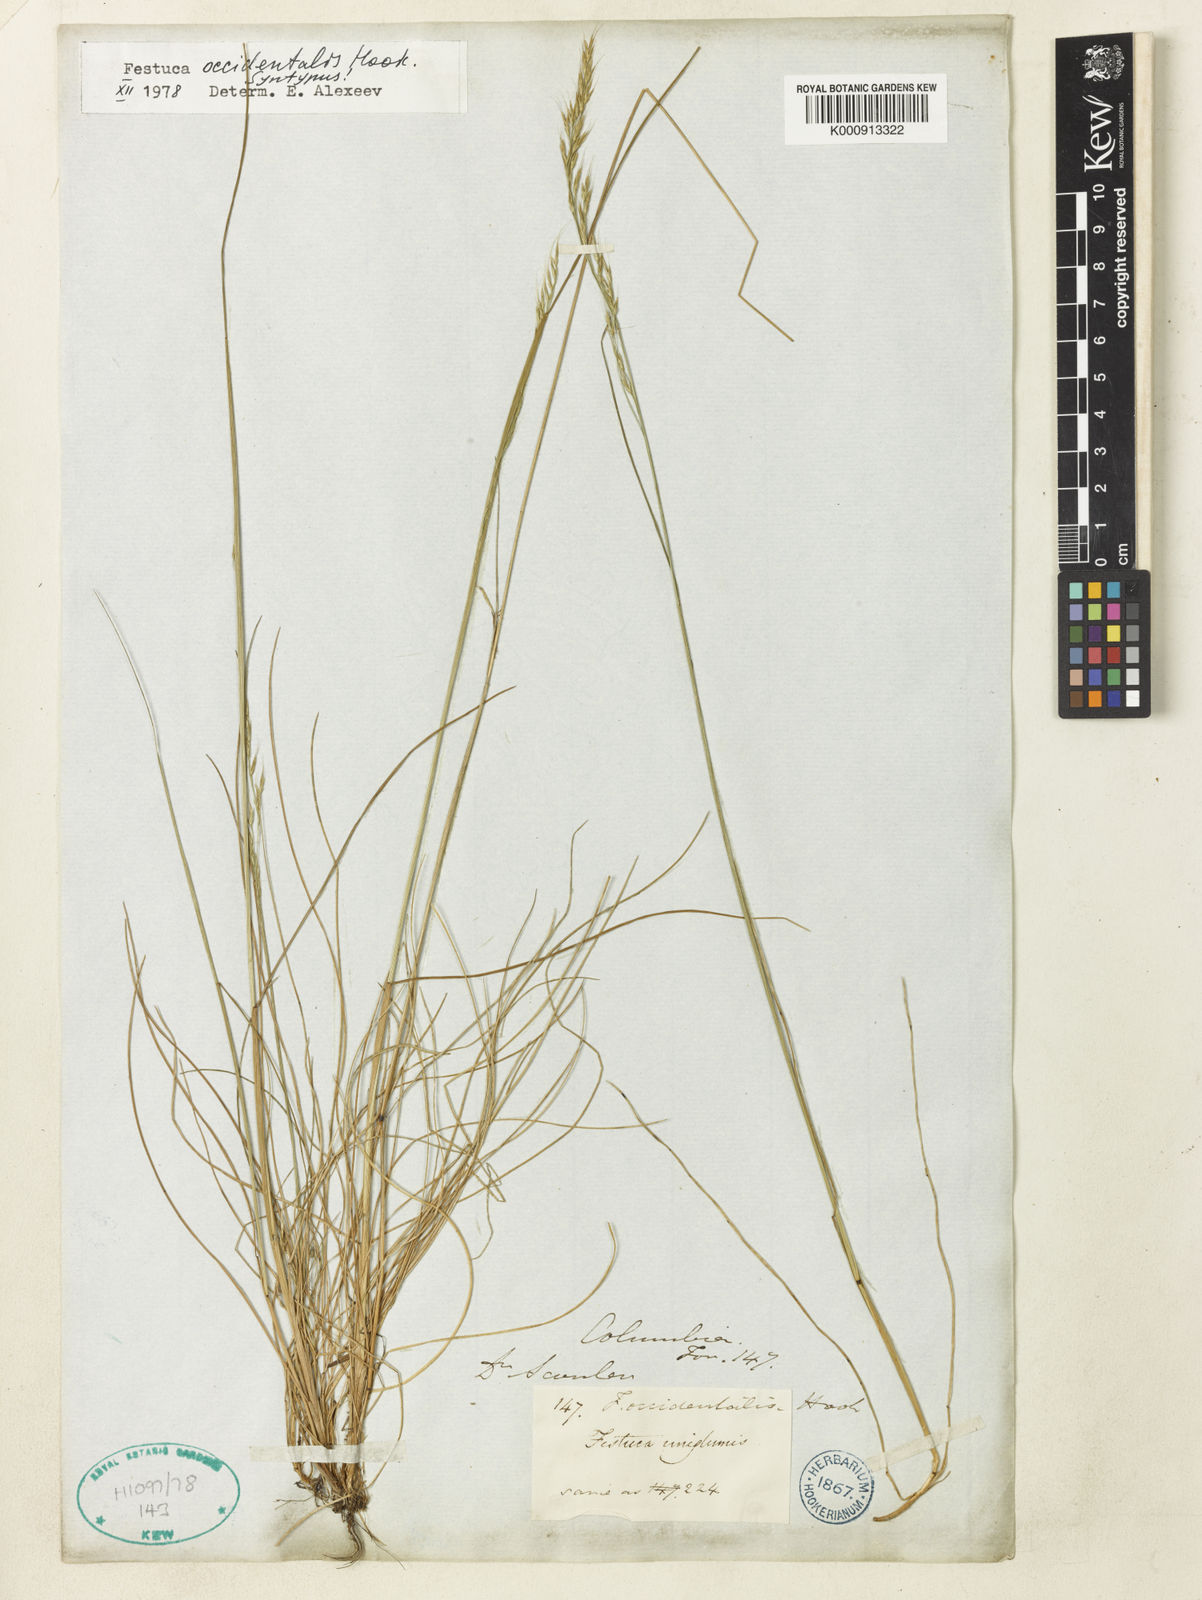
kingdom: Plantae
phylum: Tracheophyta
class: Liliopsida
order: Poales
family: Poaceae
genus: Festuca
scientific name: Festuca occidentalis
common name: Western fescue
